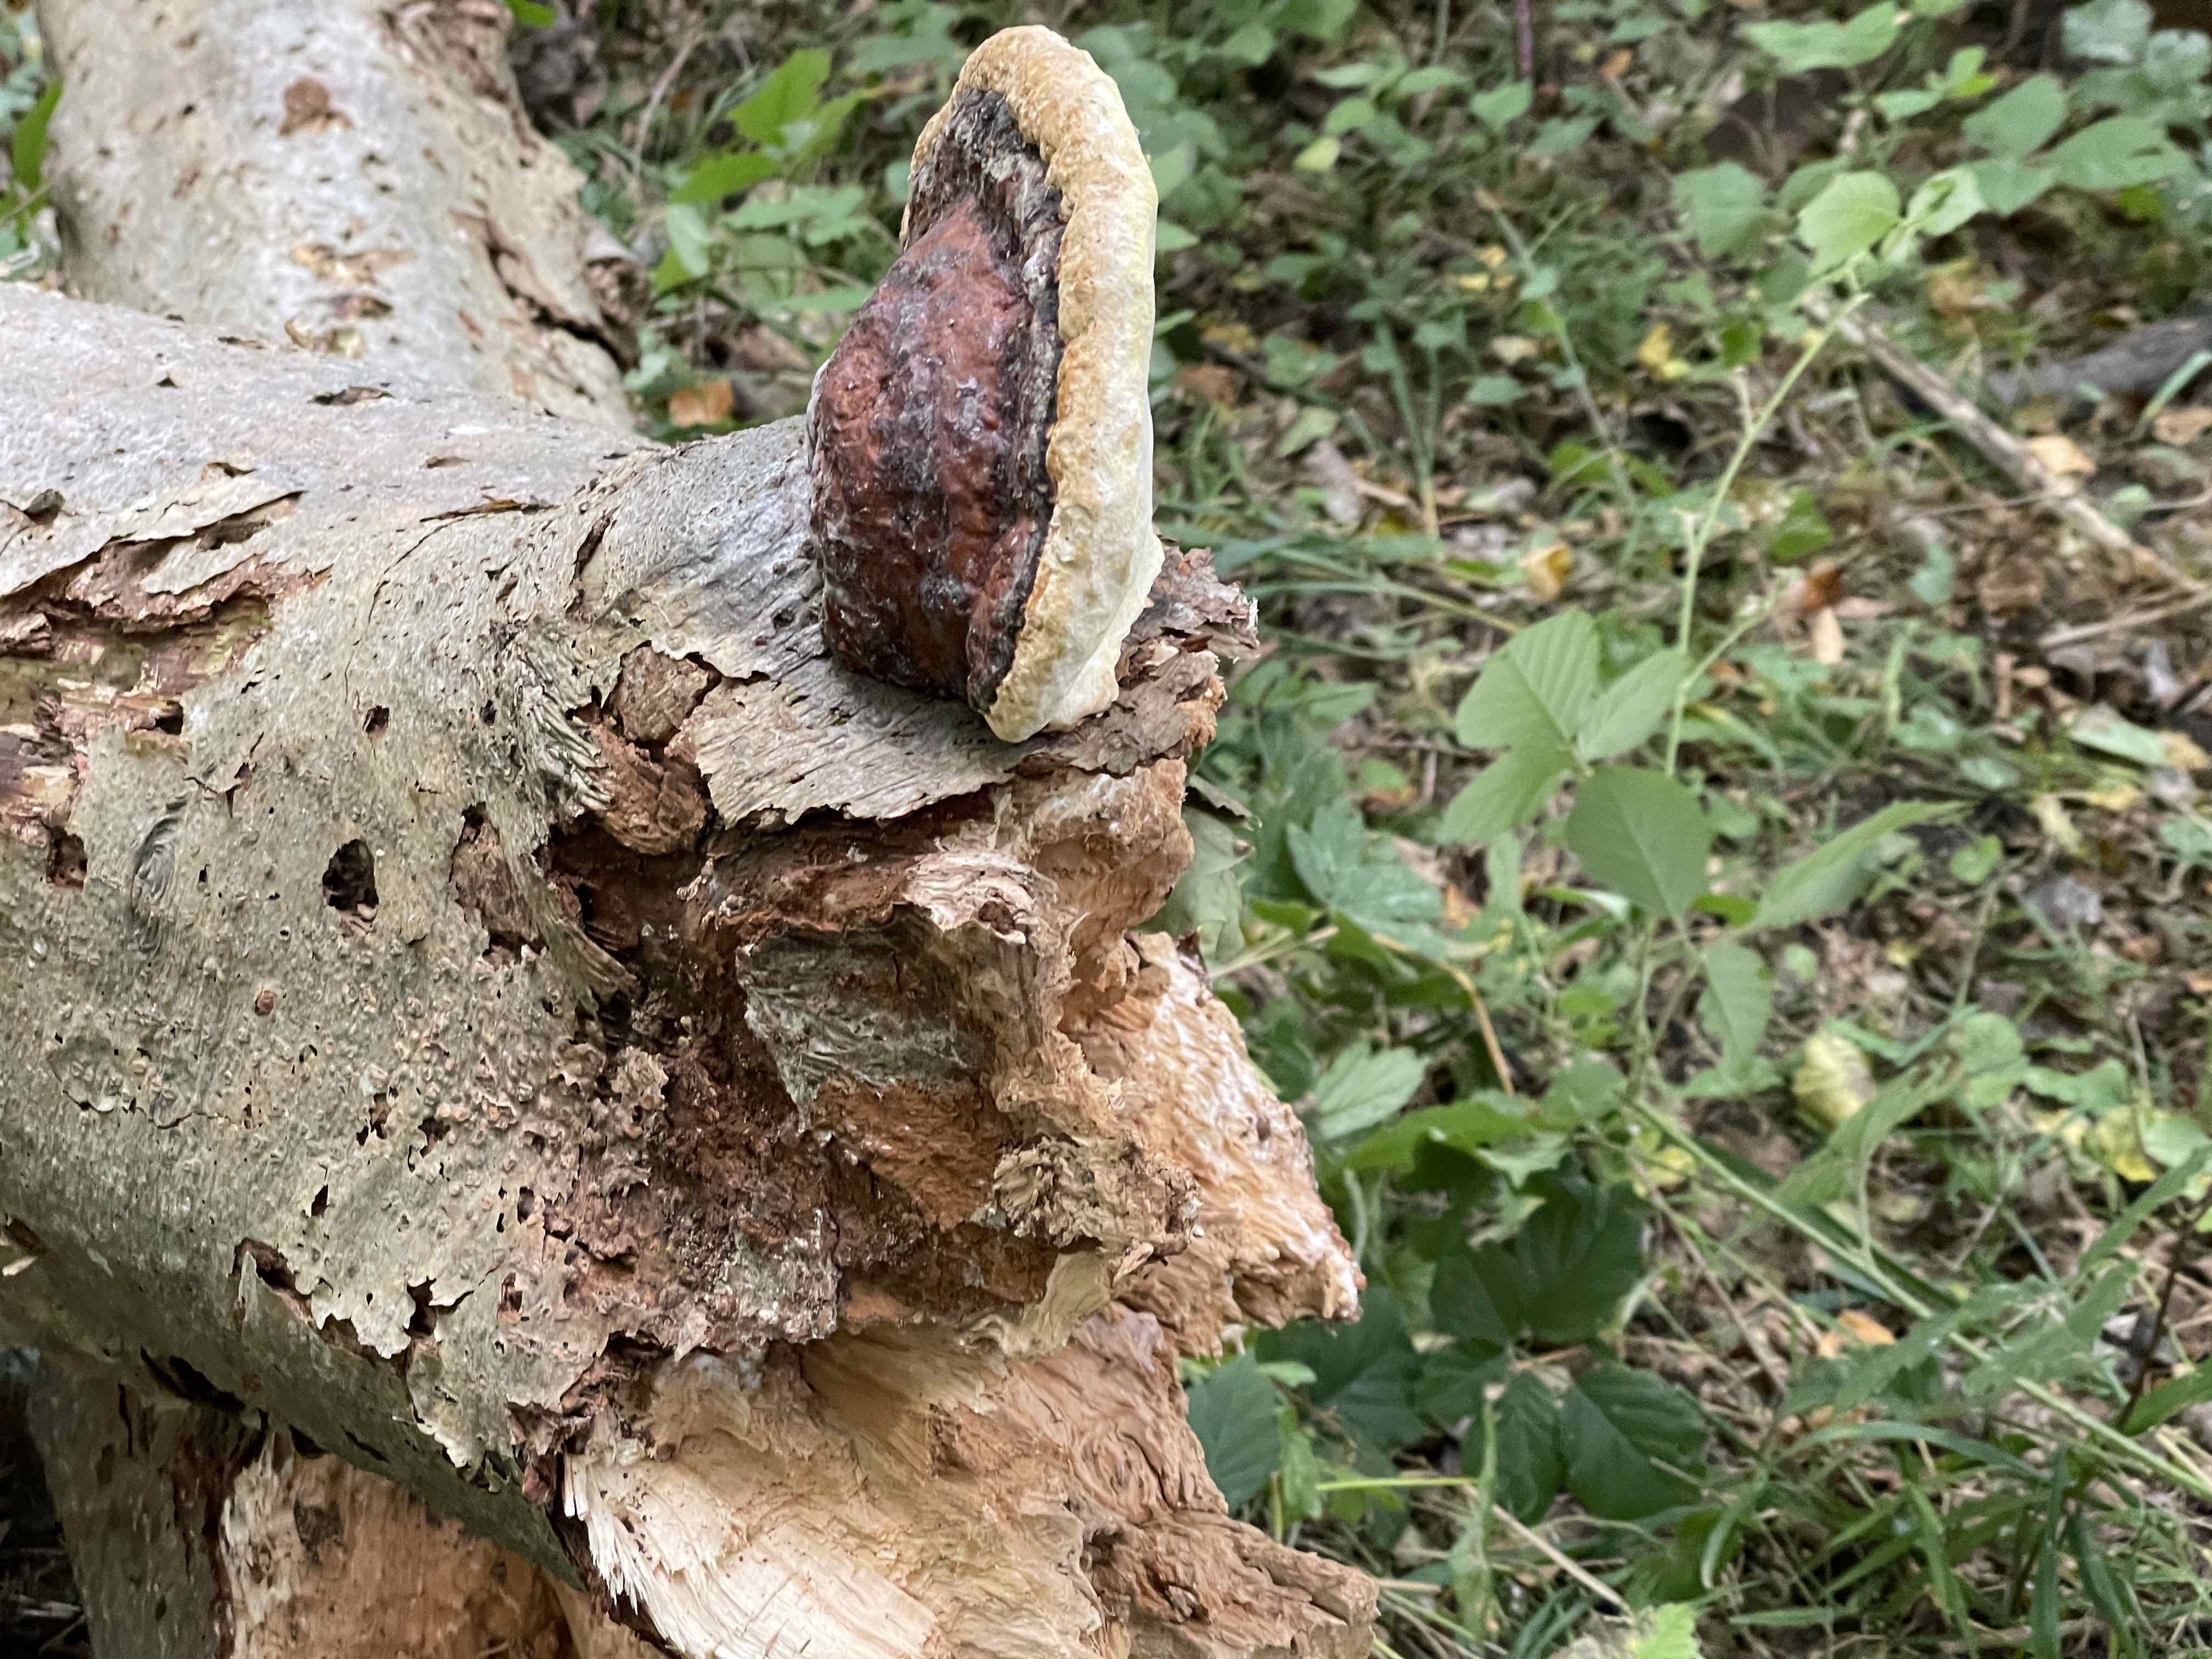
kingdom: Fungi
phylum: Basidiomycota
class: Agaricomycetes
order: Polyporales
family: Fomitopsidaceae
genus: Fomitopsis
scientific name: Fomitopsis pinicola
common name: randbæltet hovporesvamp
